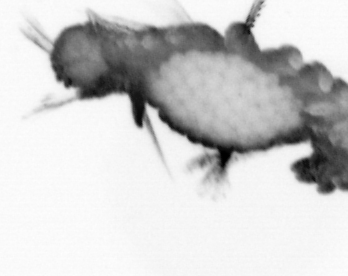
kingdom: Animalia
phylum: Annelida
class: Polychaeta
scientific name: Polychaeta
